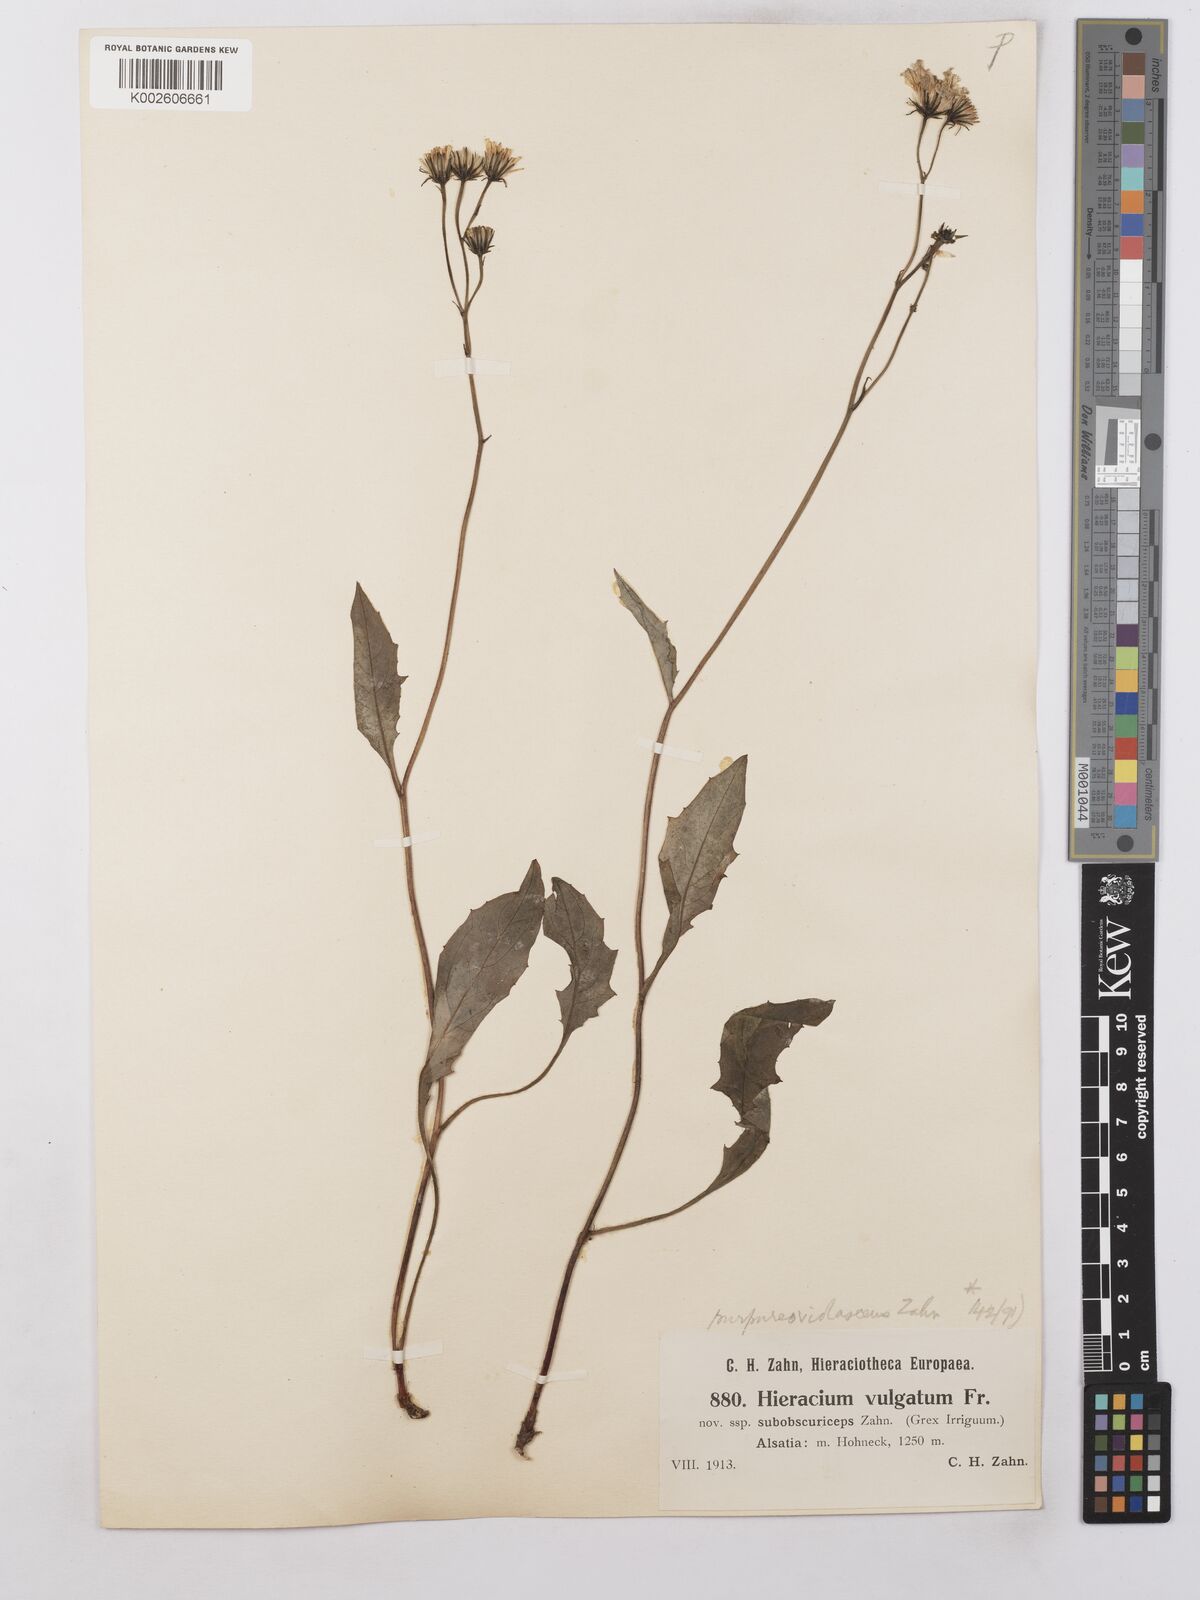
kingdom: Plantae
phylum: Tracheophyta
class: Magnoliopsida
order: Asterales
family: Asteraceae
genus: Hieracium
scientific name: Hieracium lachenalii
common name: Common hawkweed
